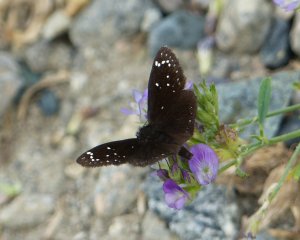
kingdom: Animalia
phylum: Arthropoda
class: Insecta
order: Lepidoptera
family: Hesperiidae
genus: Pholisora
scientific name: Pholisora catullus
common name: Common Sootywing
